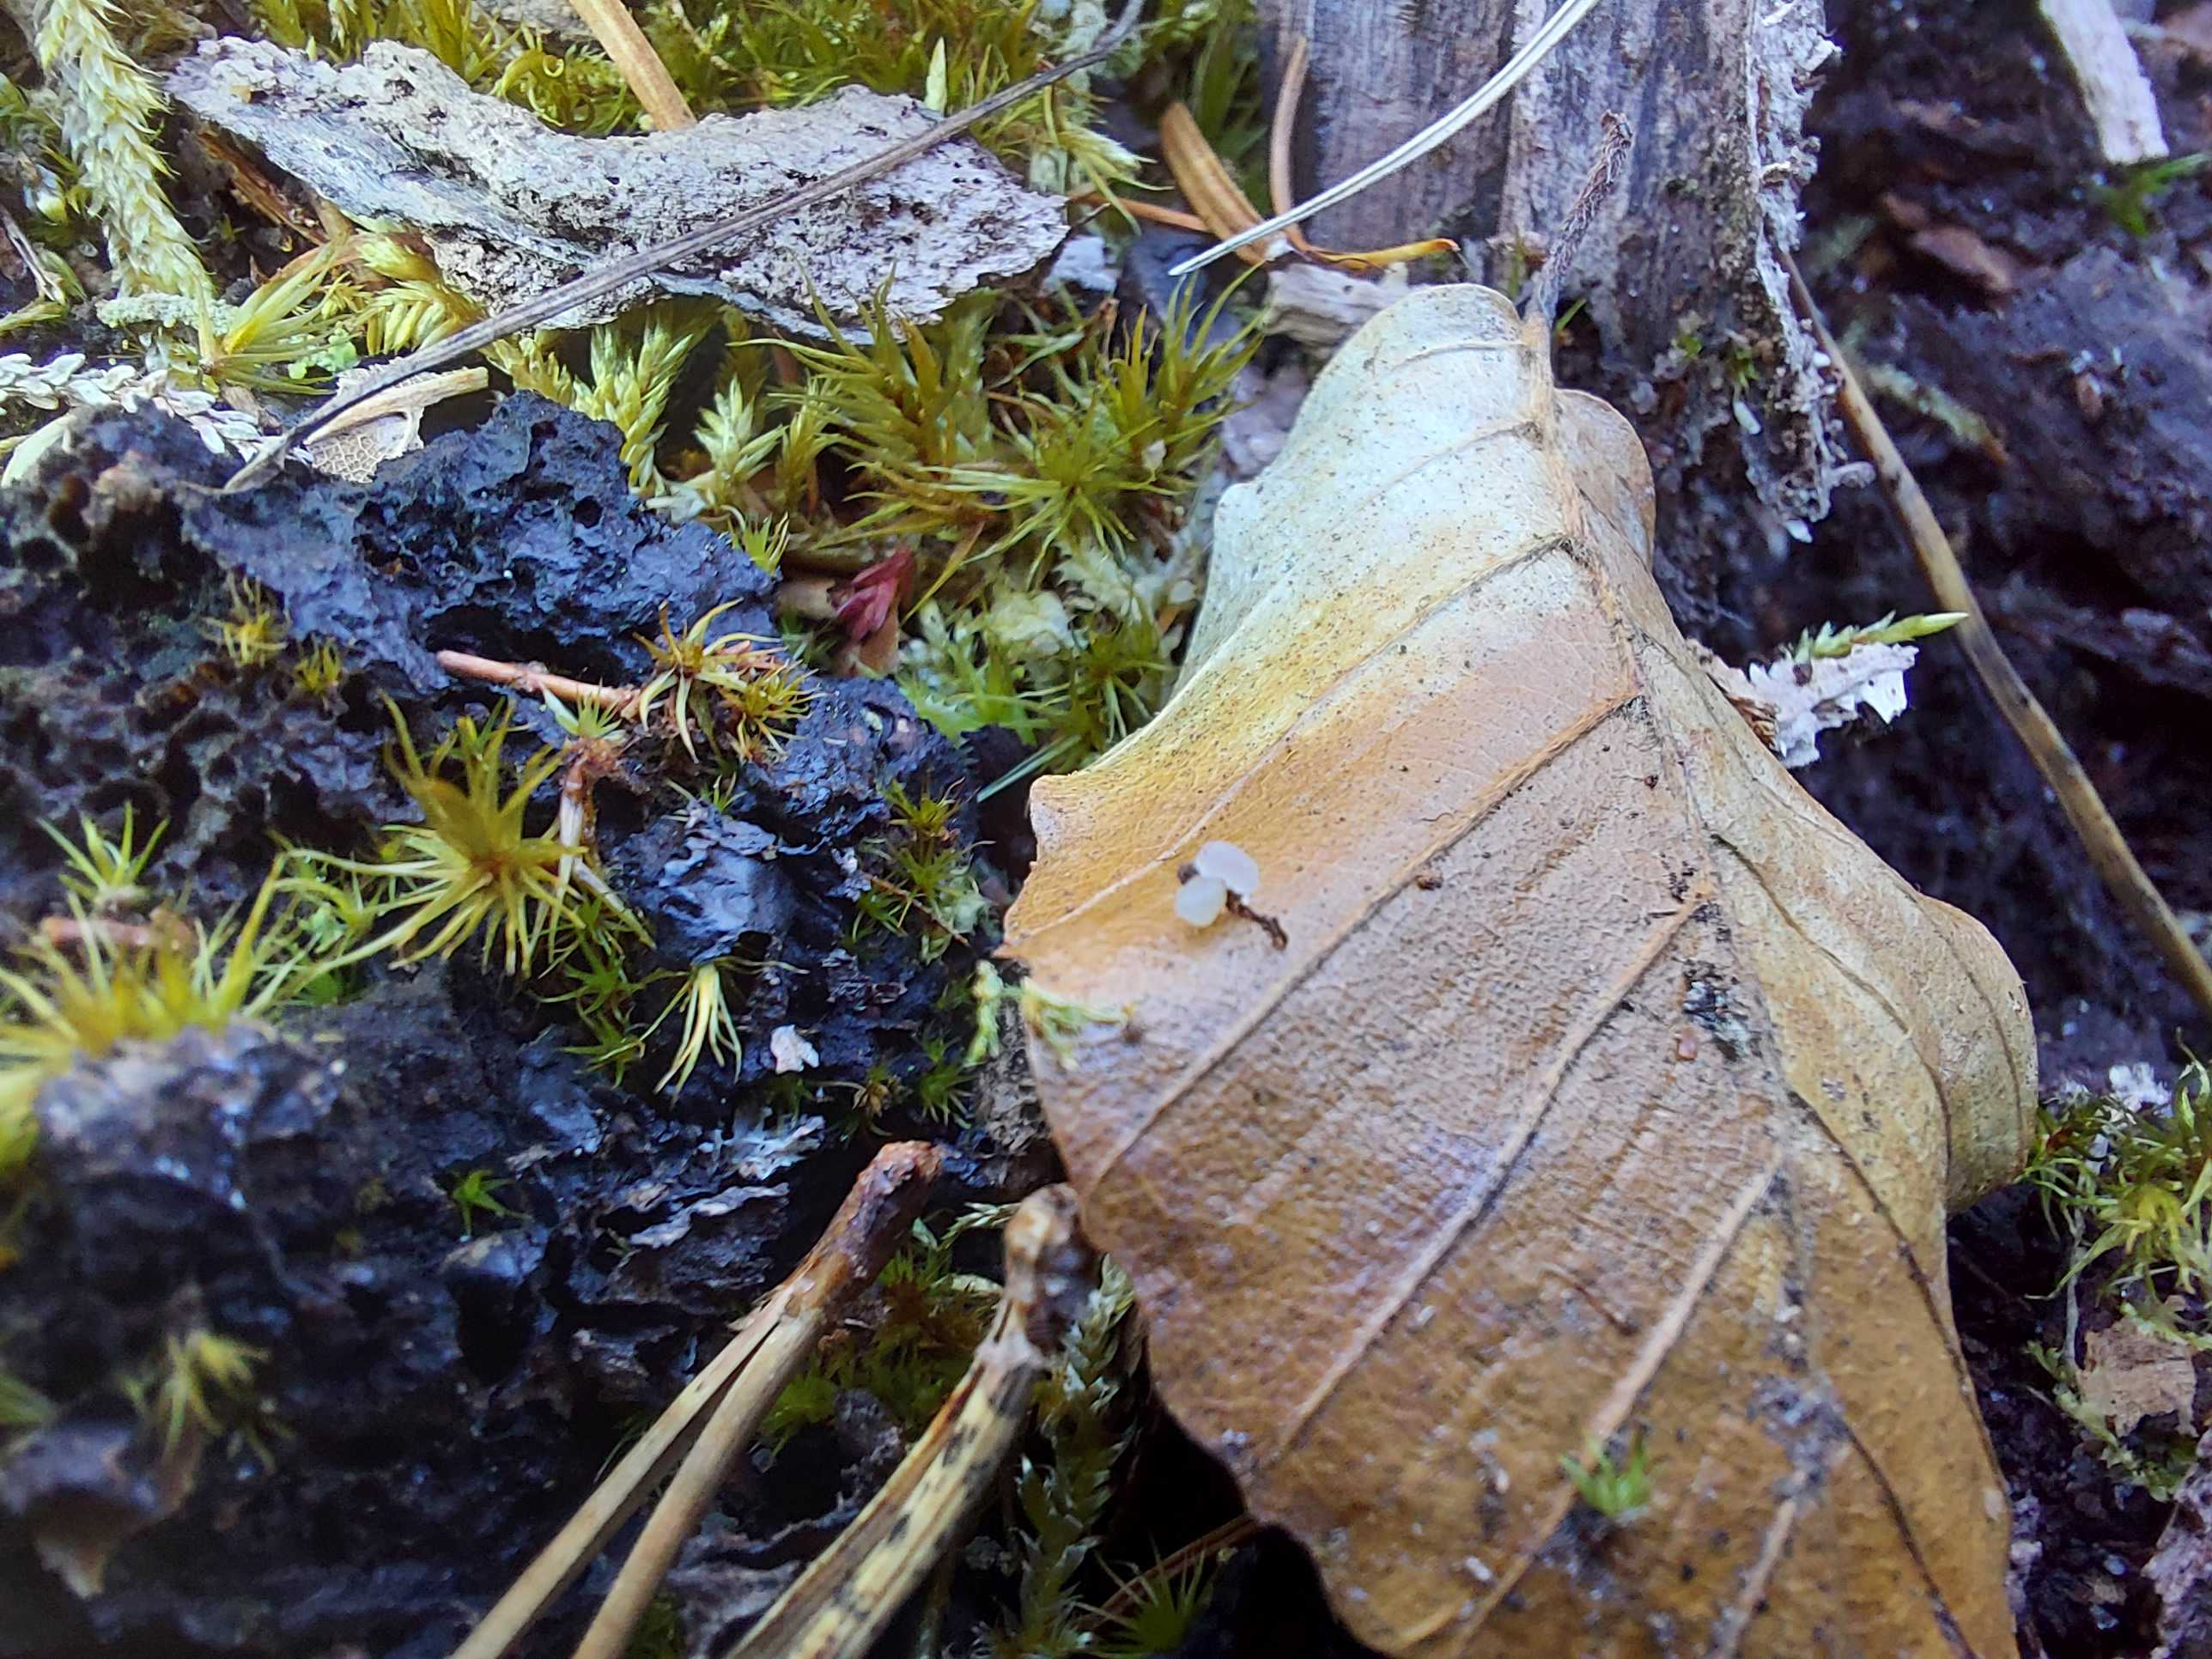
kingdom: Fungi
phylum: Ascomycota
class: Leotiomycetes
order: Helotiales
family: Lachnaceae
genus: Lachnum
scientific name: Lachnum
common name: frynseskive
